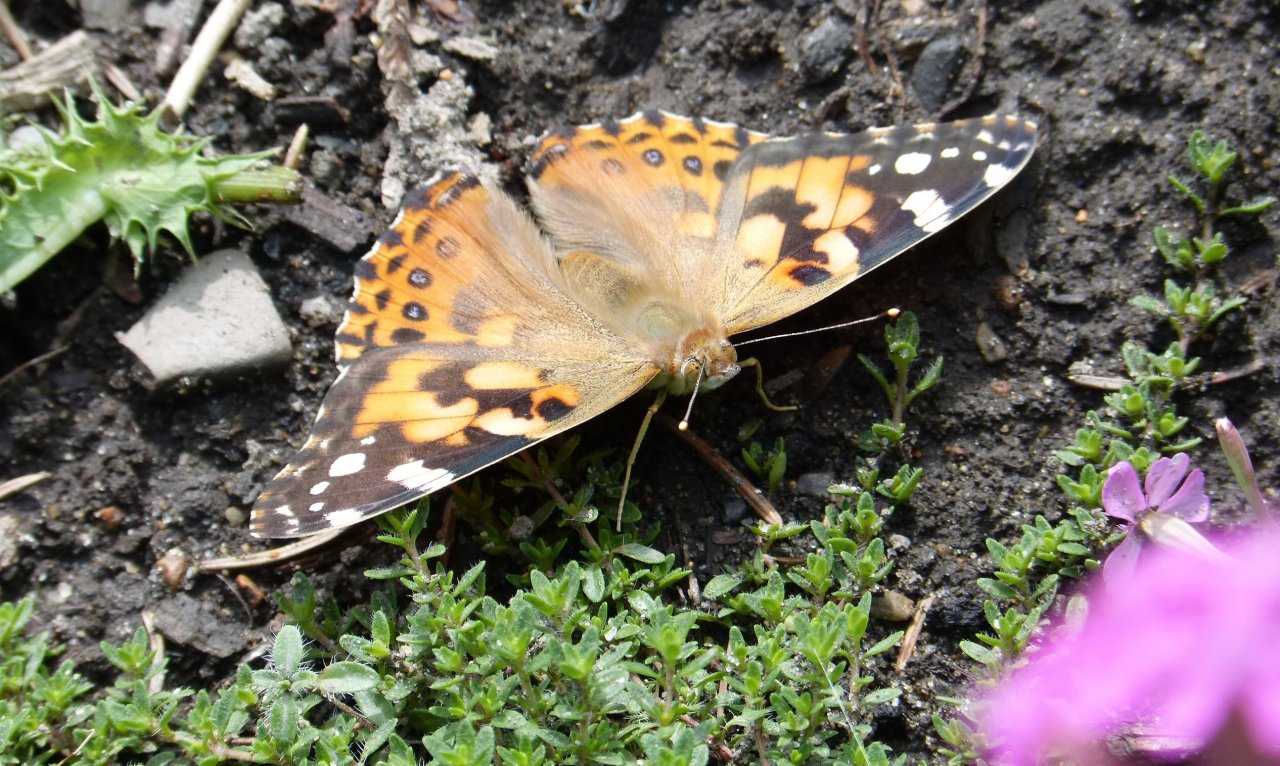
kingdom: Animalia
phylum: Arthropoda
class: Insecta
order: Lepidoptera
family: Nymphalidae
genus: Vanessa
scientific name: Vanessa cardui
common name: Painted Lady
